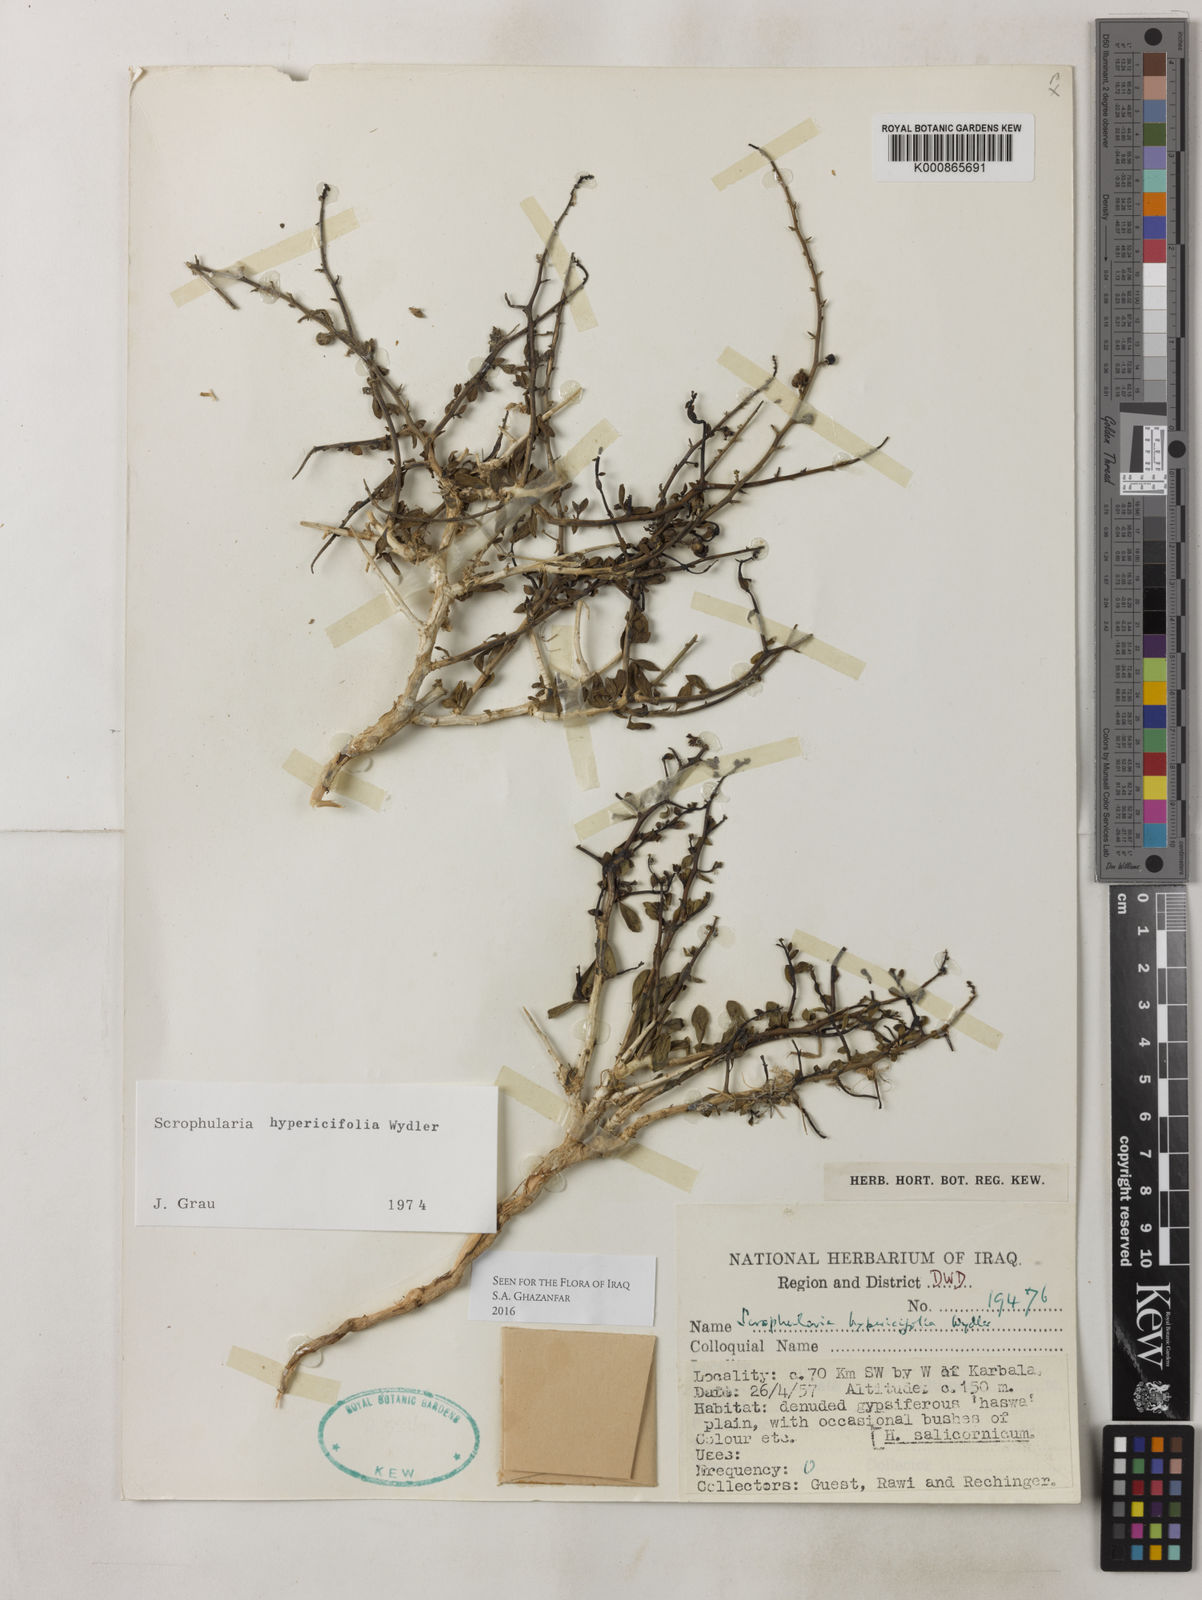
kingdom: Plantae
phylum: Tracheophyta
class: Magnoliopsida
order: Lamiales
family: Scrophulariaceae
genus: Scrophularia
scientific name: Scrophularia hypericifolia
